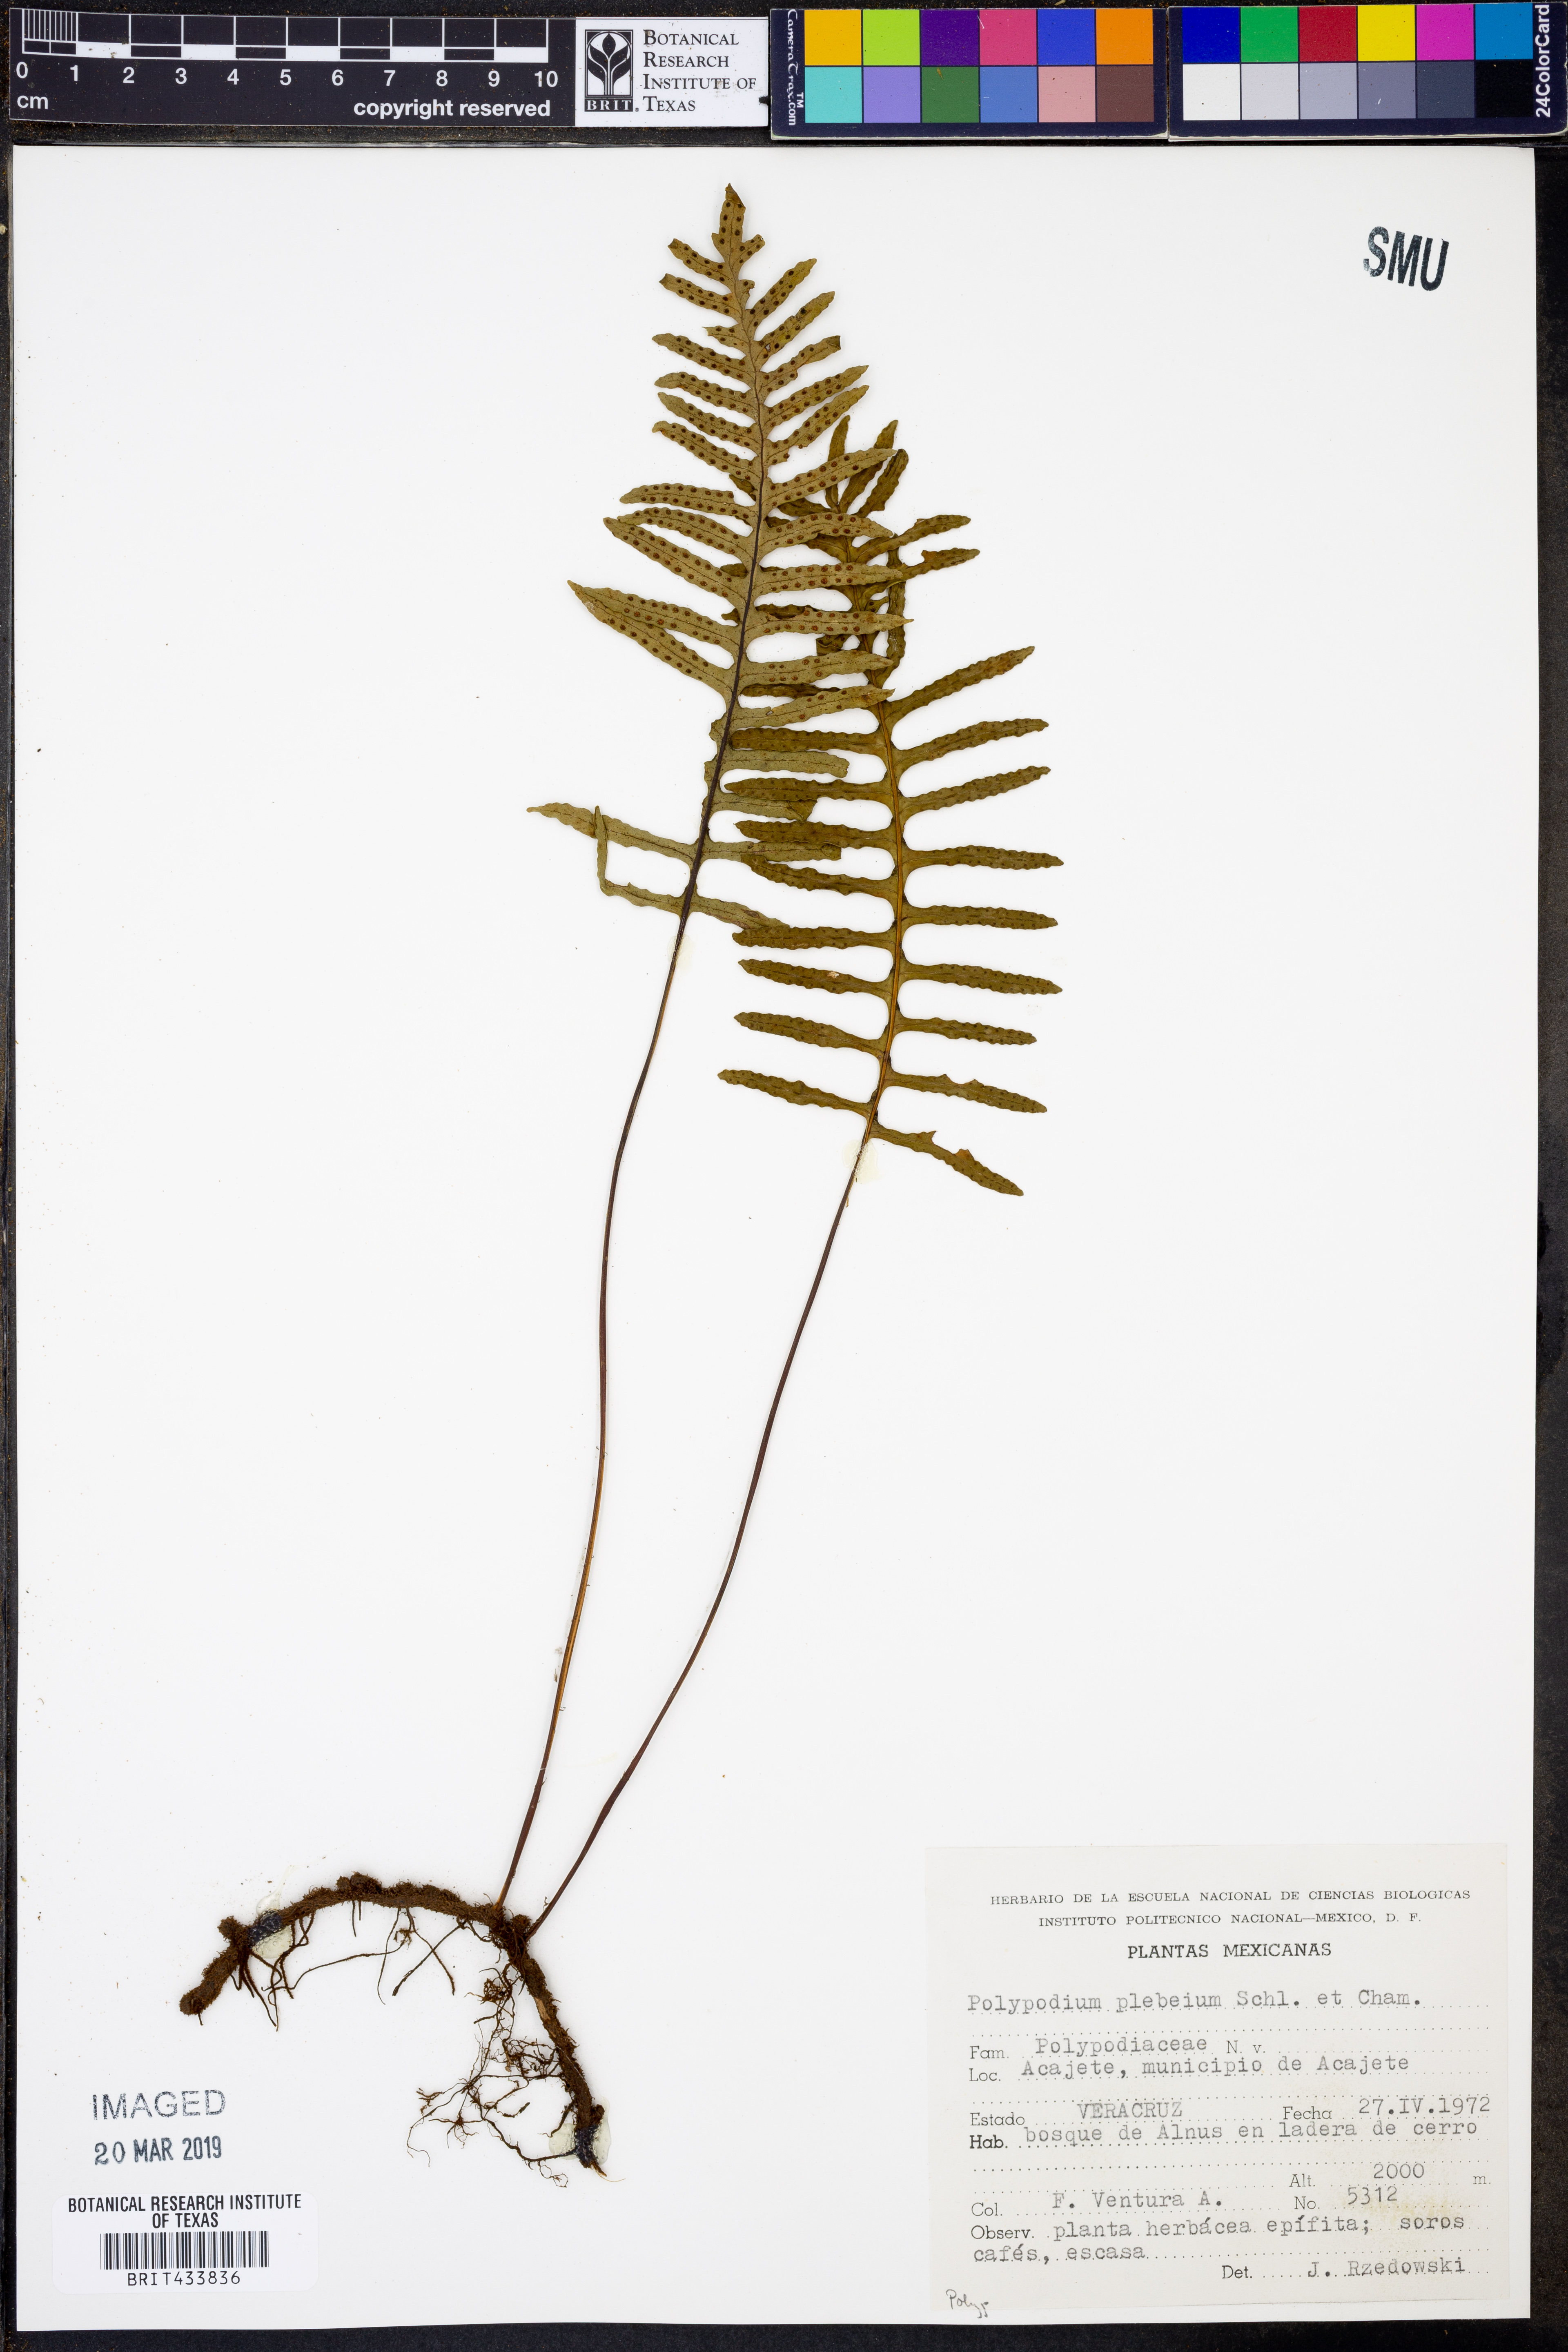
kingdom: Plantae
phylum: Tracheophyta
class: Polypodiopsida
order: Polypodiales
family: Polypodiaceae
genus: Pleopeltis
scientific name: Pleopeltis plebeia
